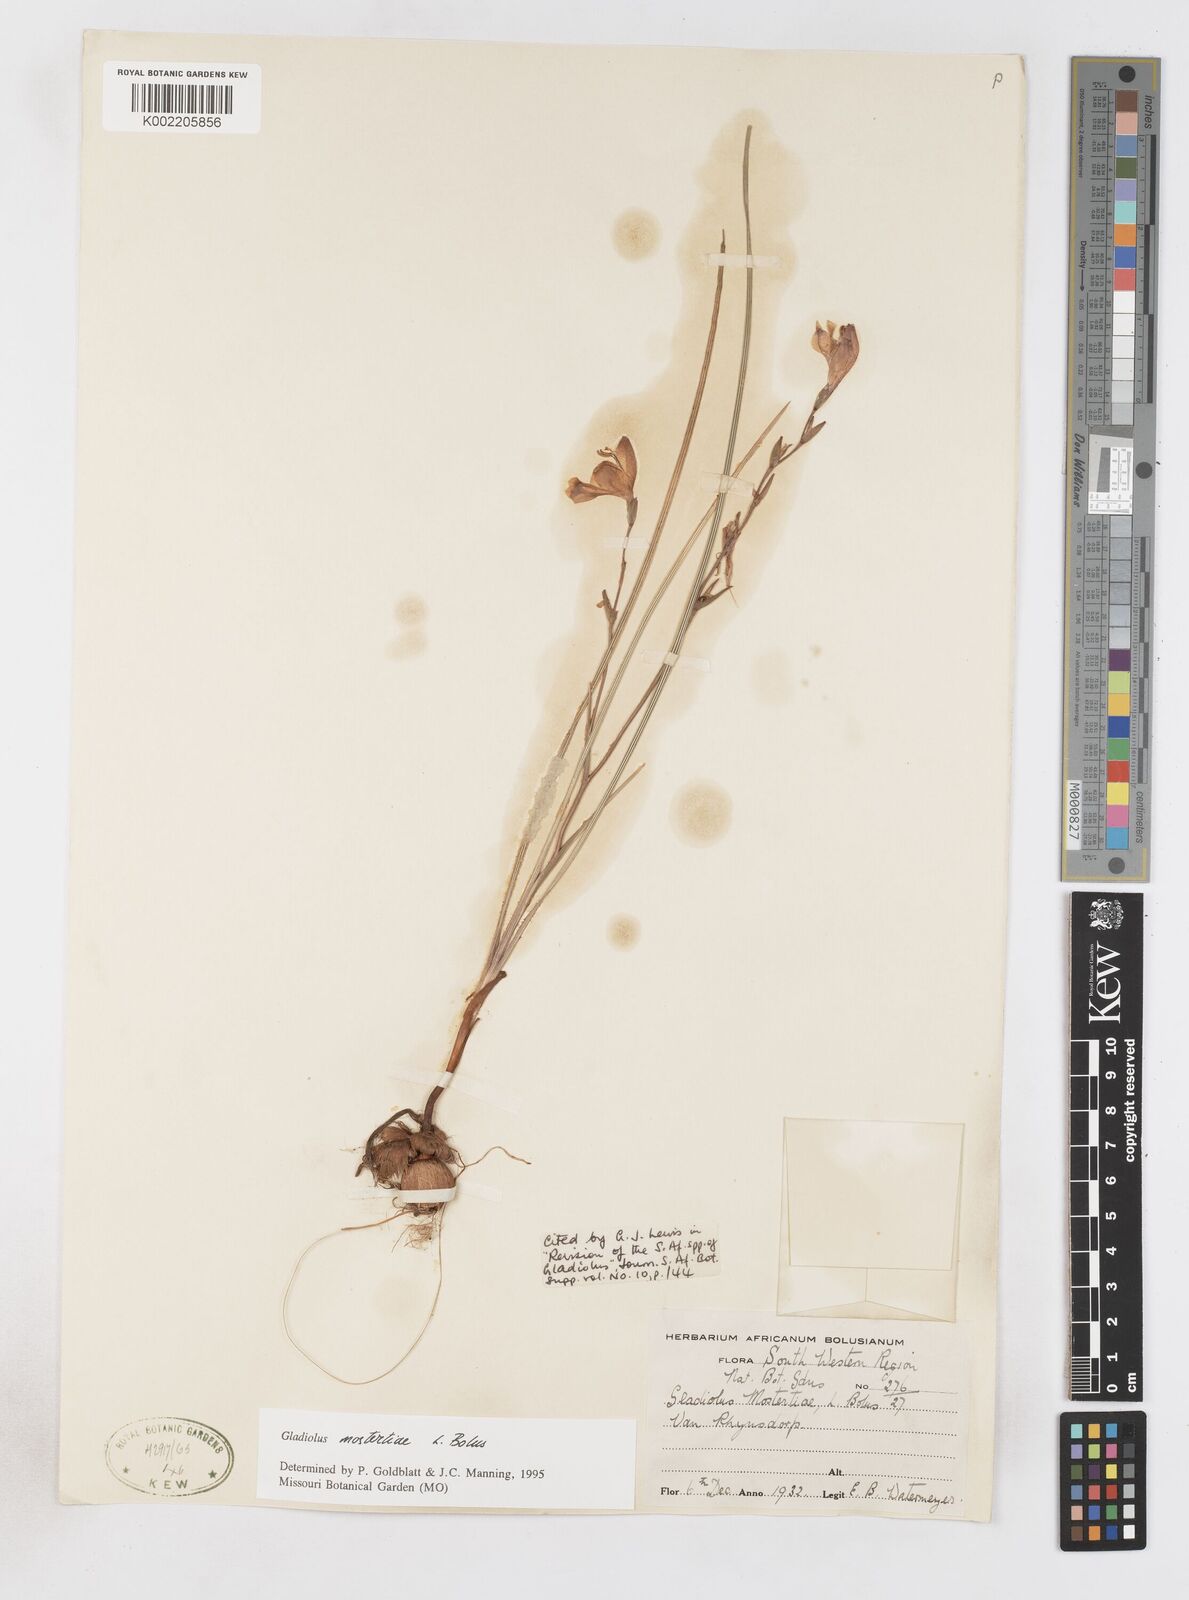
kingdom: Plantae
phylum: Tracheophyta
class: Liliopsida
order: Asparagales
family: Iridaceae
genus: Gladiolus
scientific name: Gladiolus mostertiae
